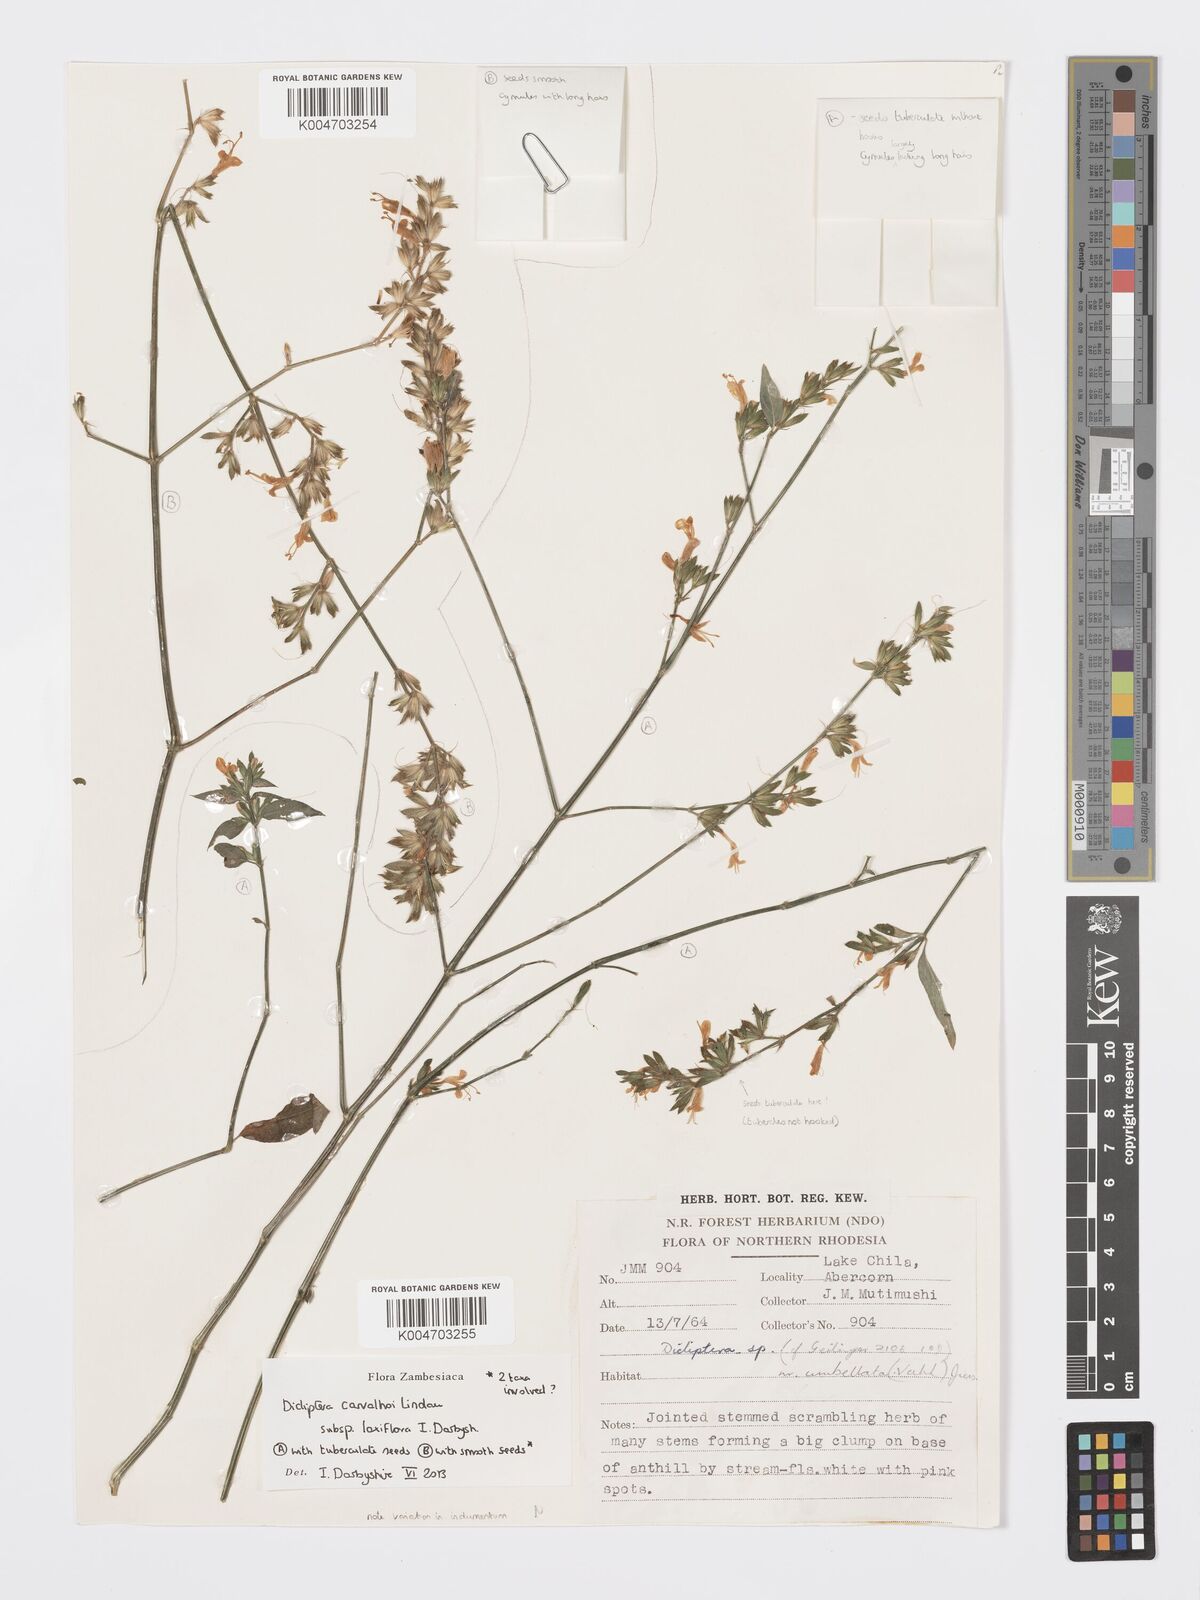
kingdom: Plantae
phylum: Tracheophyta
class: Magnoliopsida
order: Lamiales
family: Acanthaceae
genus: Dicliptera
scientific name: Dicliptera carvalhoi
